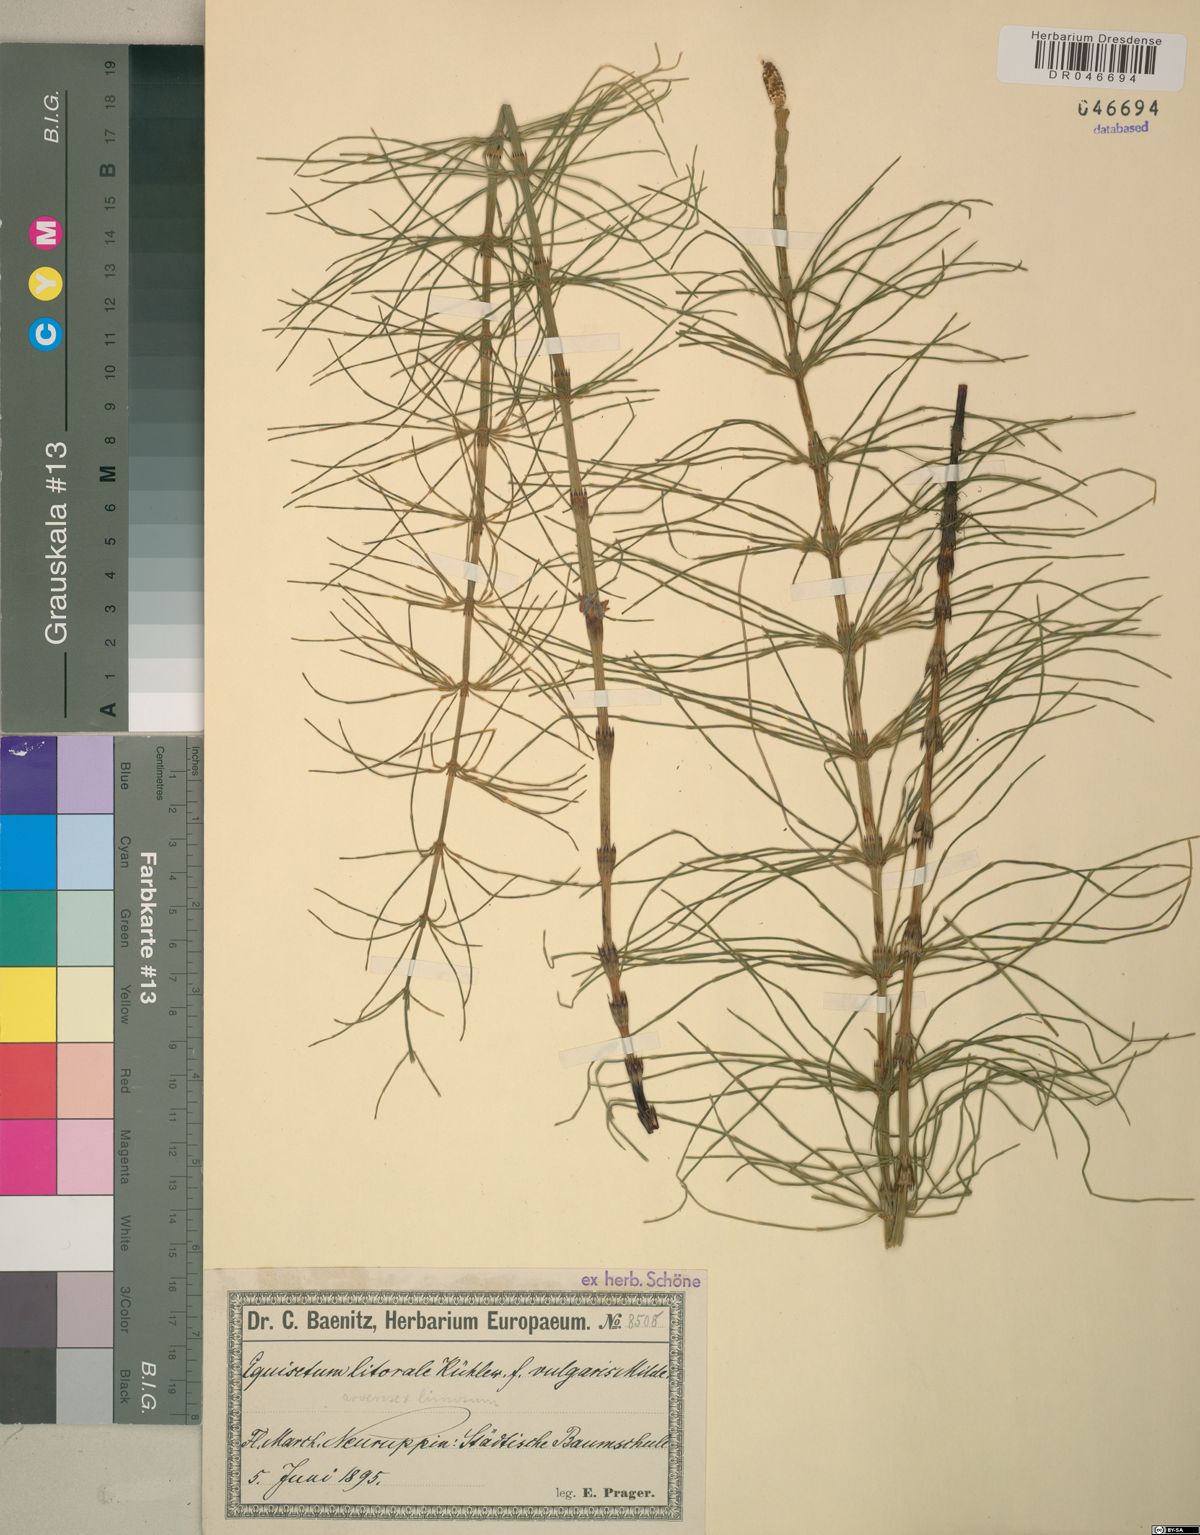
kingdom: Plantae
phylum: Tracheophyta
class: Polypodiopsida
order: Equisetales
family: Equisetaceae
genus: Equisetum
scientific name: Equisetum litorale
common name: Littoral horsetail
